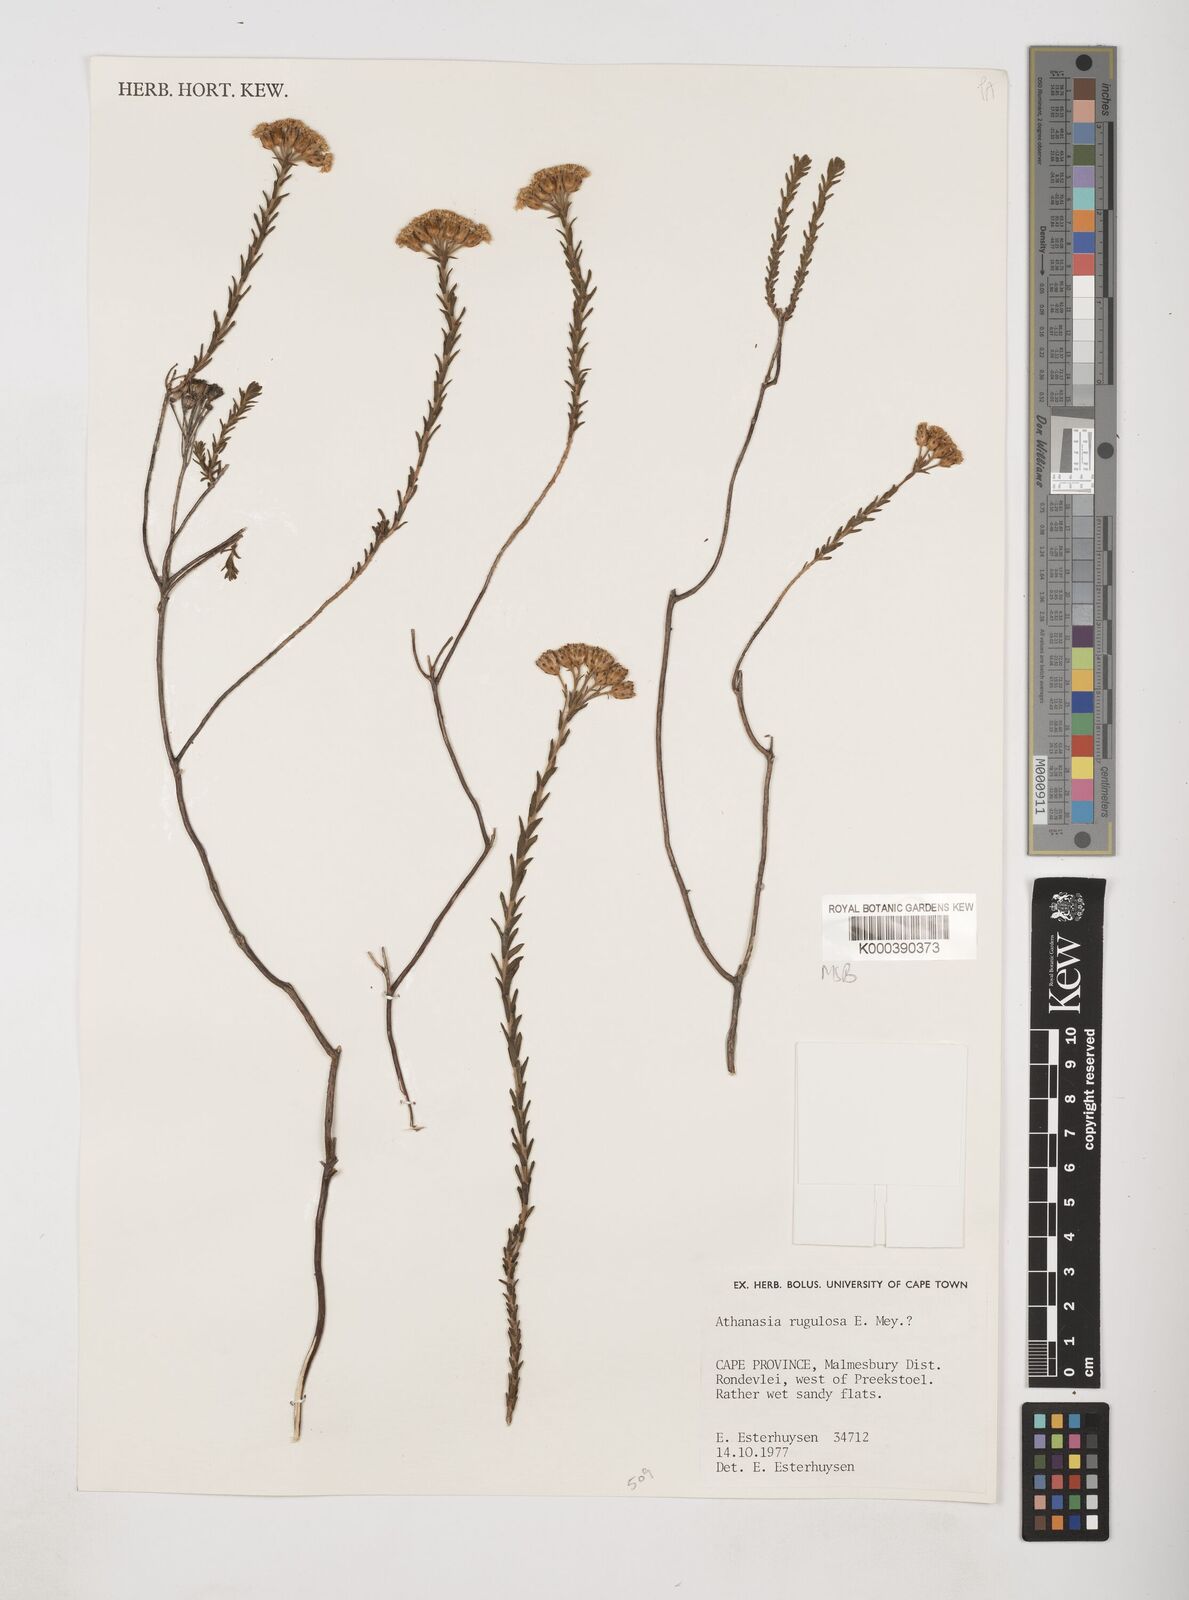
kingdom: Plantae
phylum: Tracheophyta
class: Magnoliopsida
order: Asterales
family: Asteraceae
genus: Athanasia
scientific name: Athanasia rugulosa
